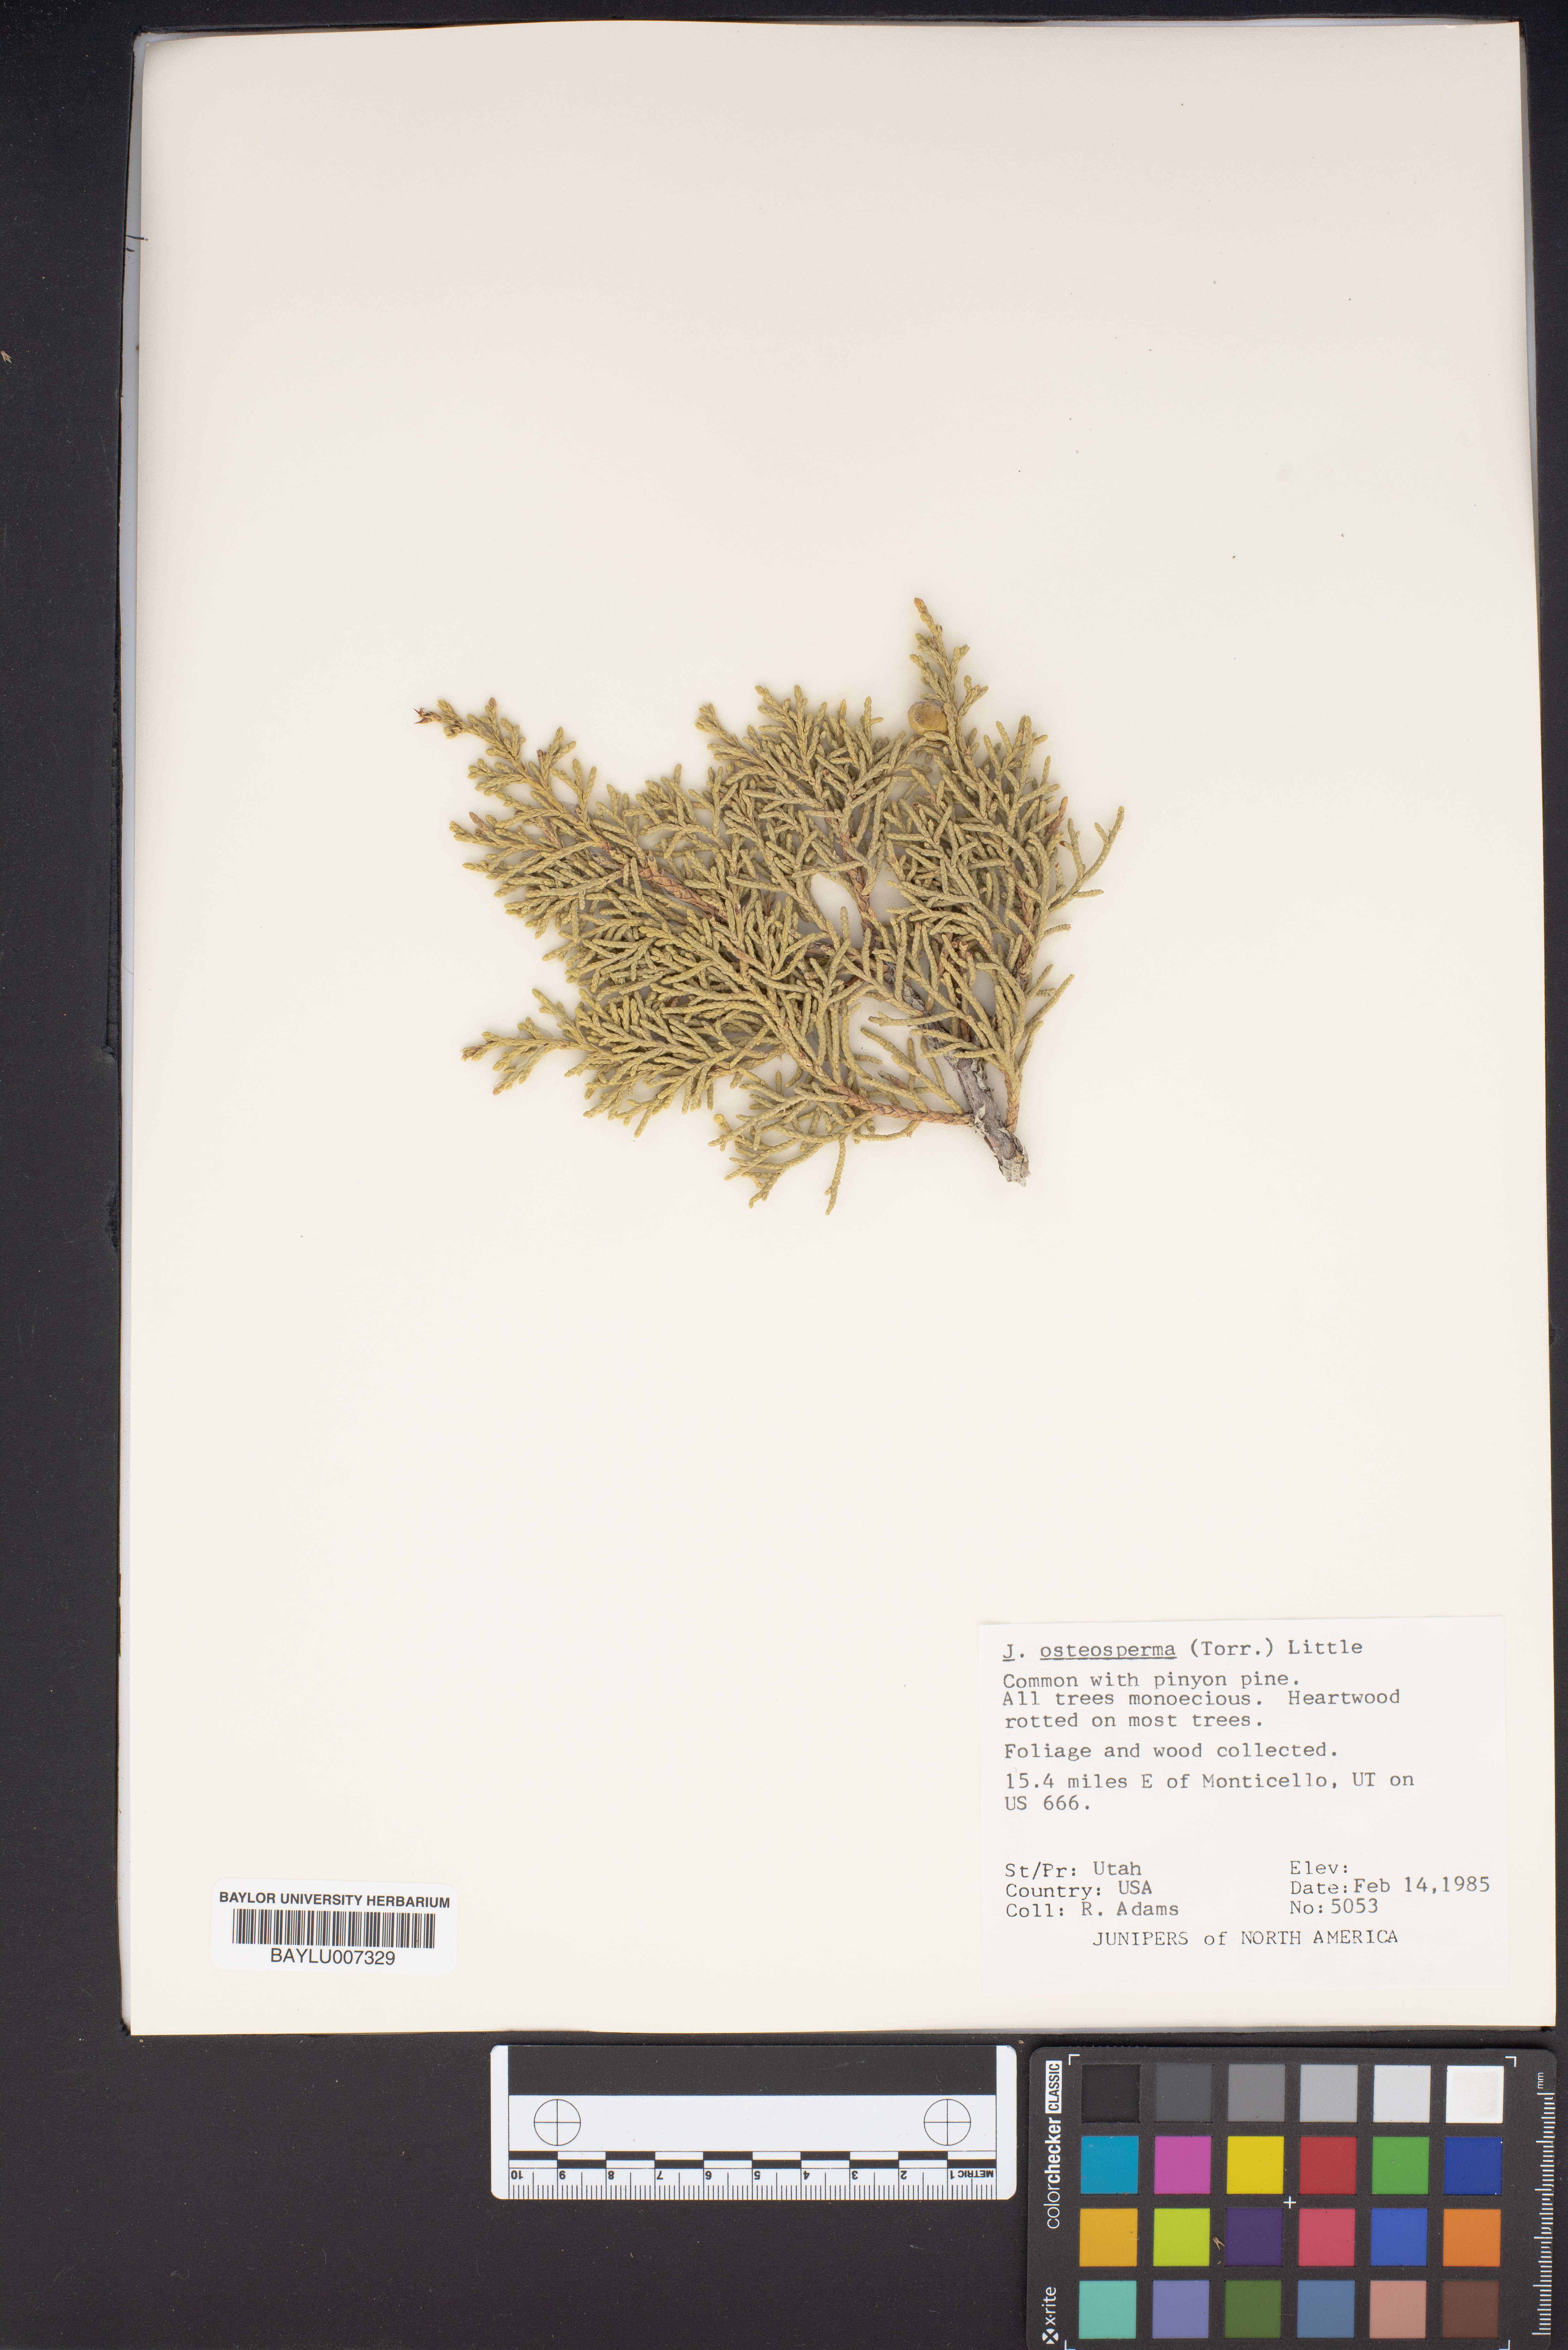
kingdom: Plantae
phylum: Tracheophyta
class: Pinopsida
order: Pinales
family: Cupressaceae
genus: Juniperus
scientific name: Juniperus osteosperma
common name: Utah juniper
